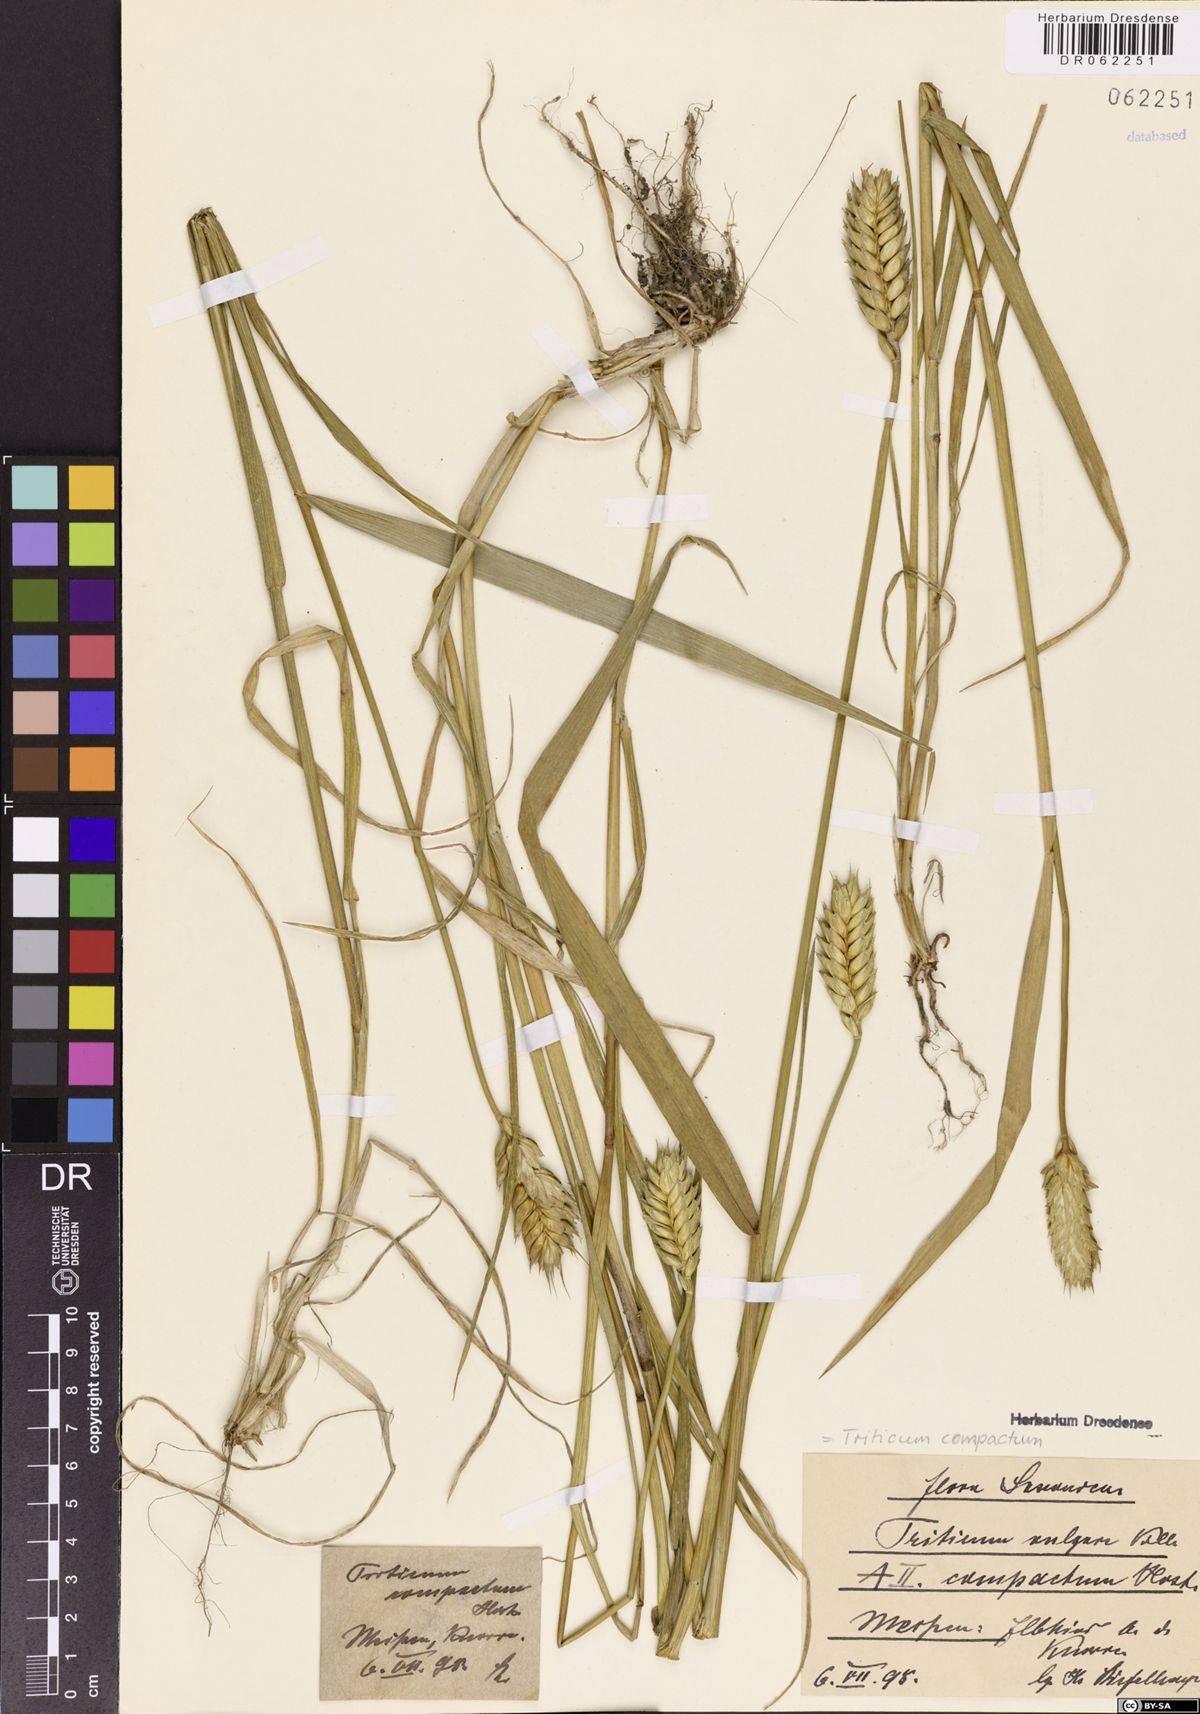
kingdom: Plantae
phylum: Tracheophyta
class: Liliopsida
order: Poales
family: Poaceae
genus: Triticum
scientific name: Triticum aestivum
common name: Common wheat
